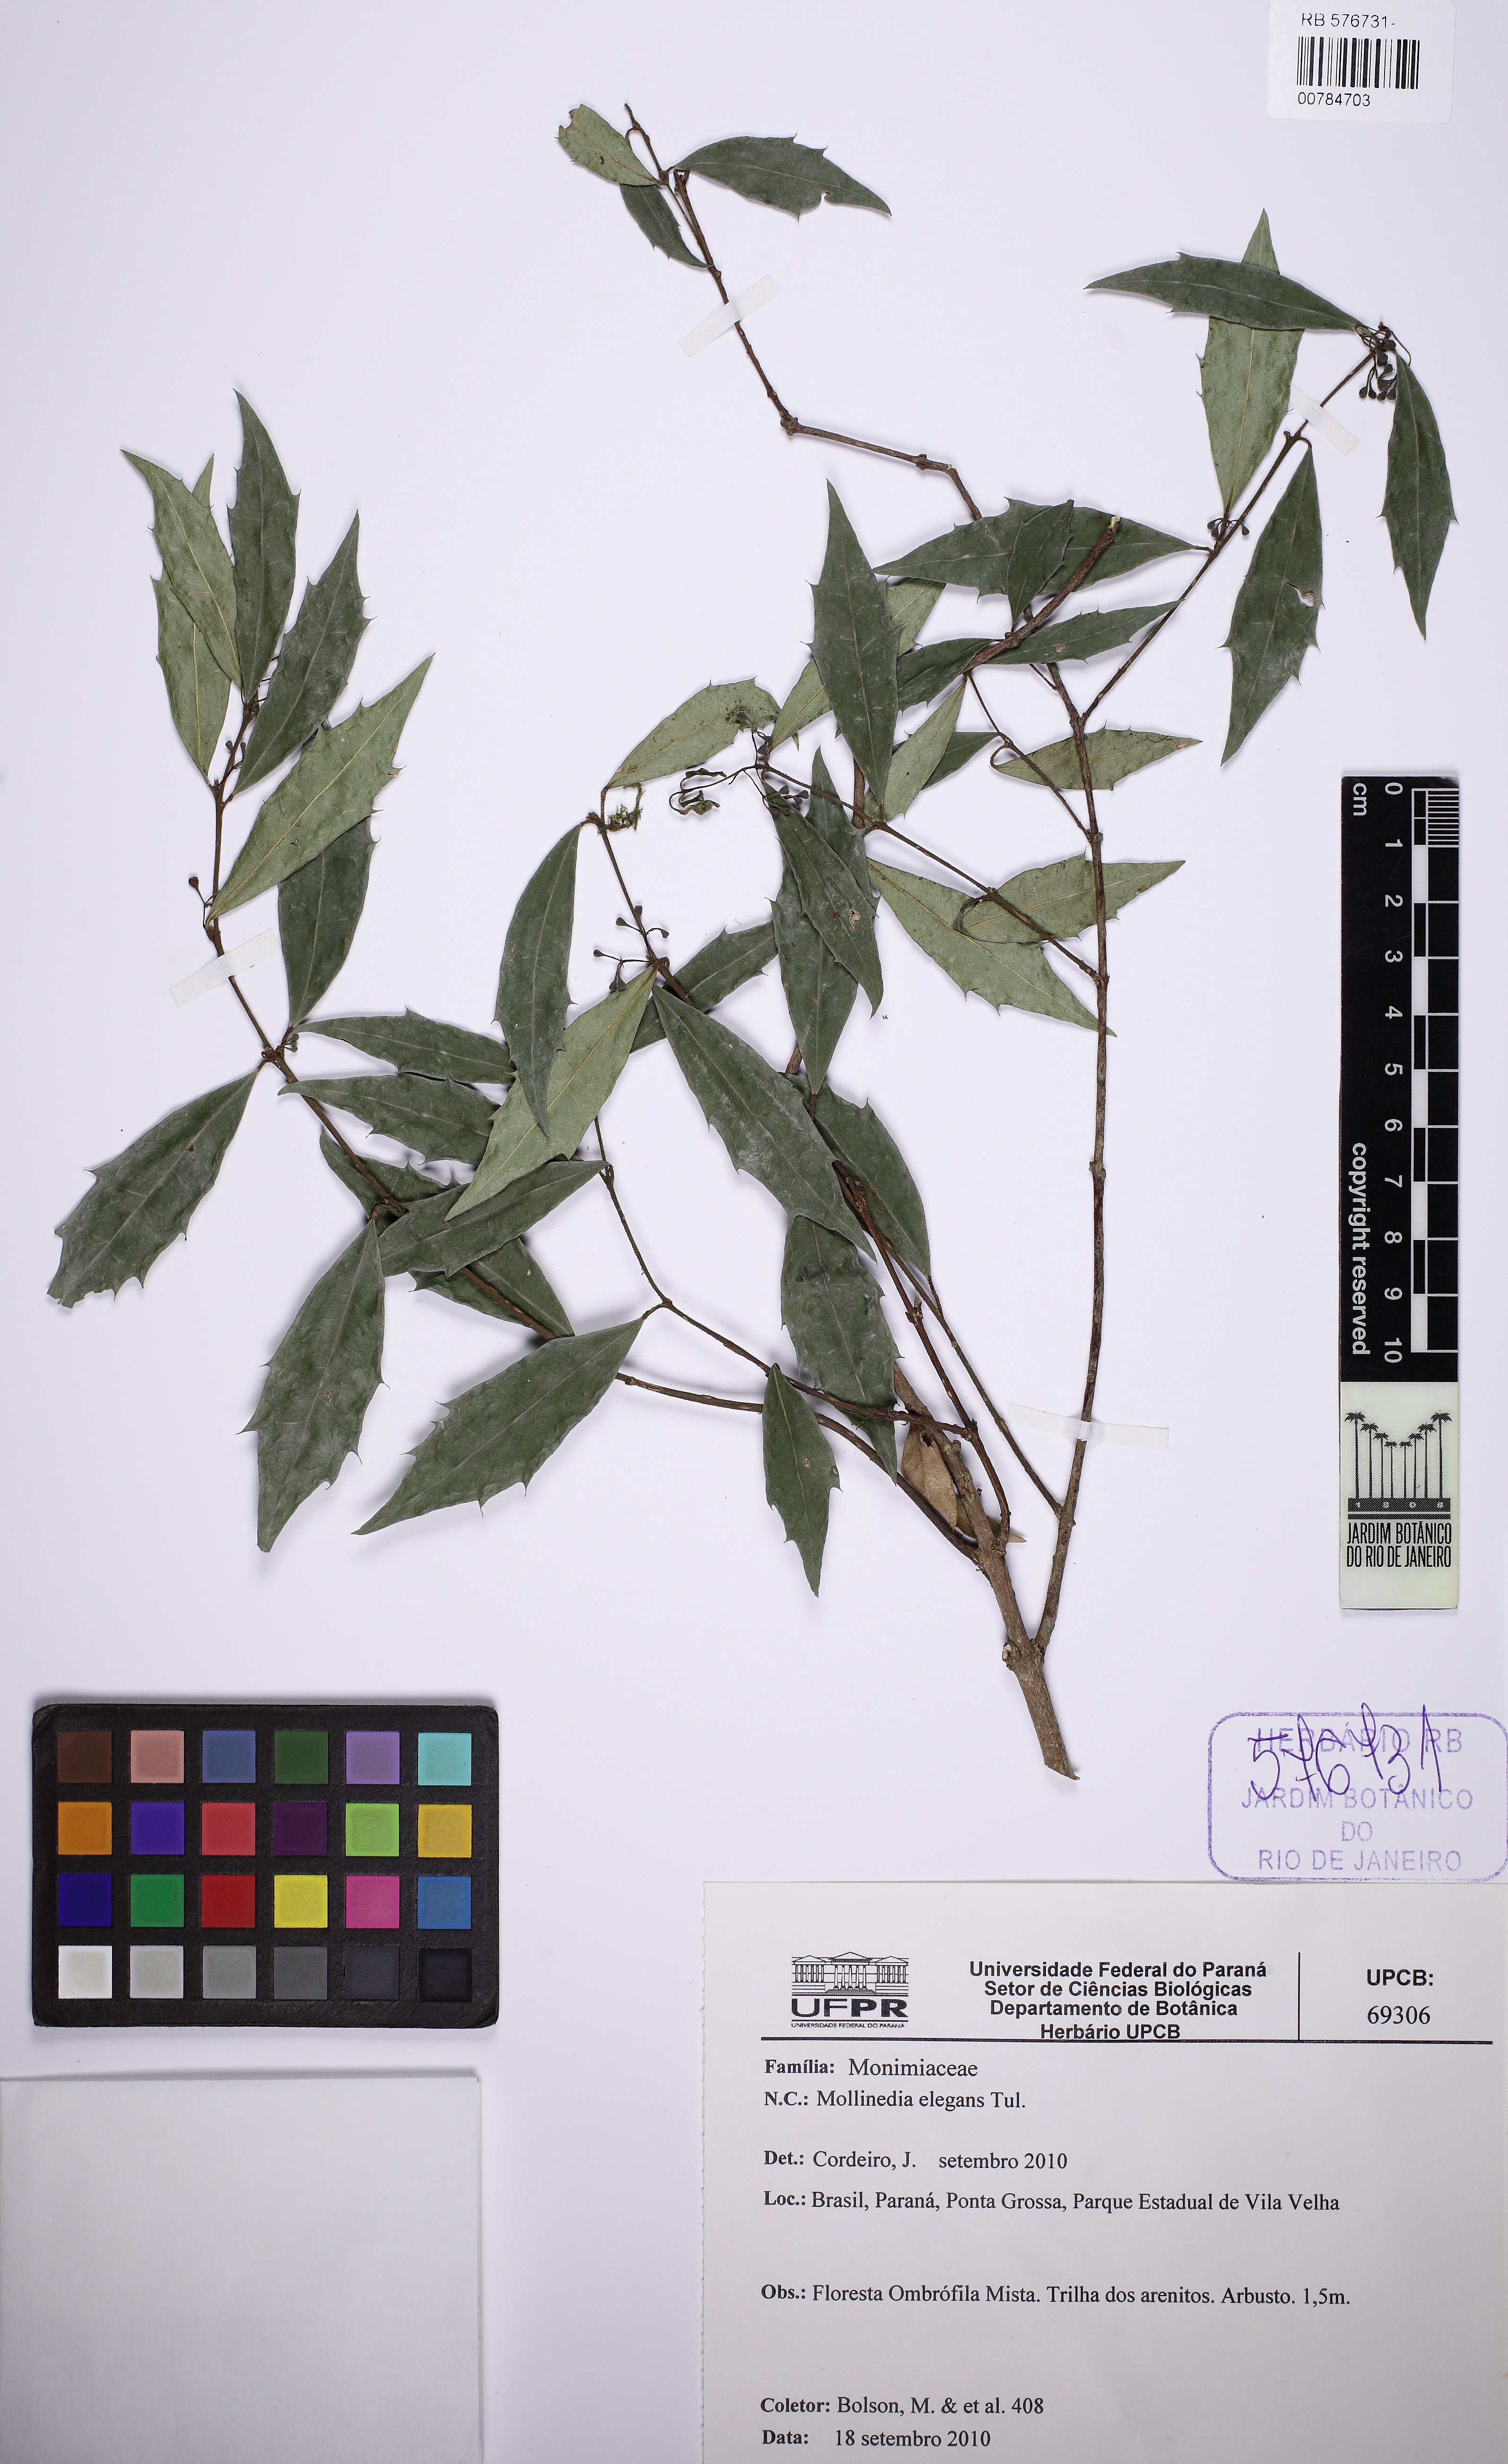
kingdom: Plantae
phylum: Tracheophyta
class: Magnoliopsida
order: Laurales
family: Monimiaceae
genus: Mollinedia
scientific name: Mollinedia elegans
